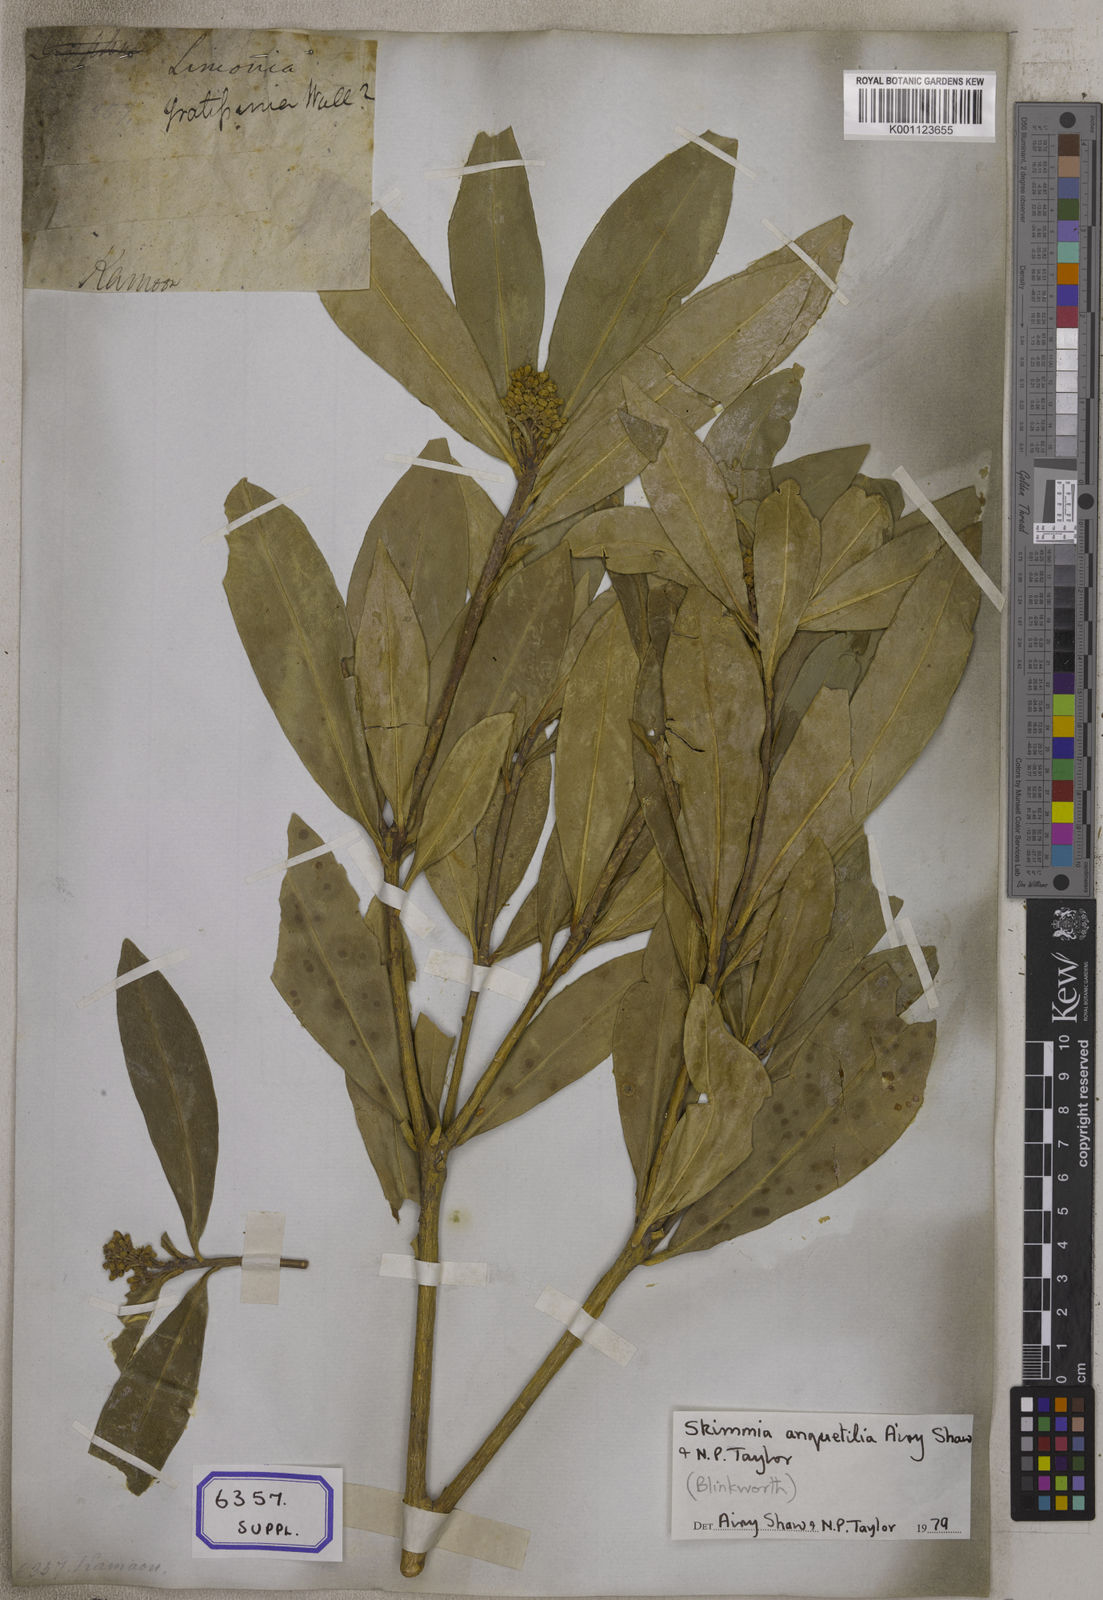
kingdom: Plantae
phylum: Tracheophyta
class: Magnoliopsida
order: Sapindales
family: Rutaceae
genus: Skimmia
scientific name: Skimmia laureola
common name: Ner
